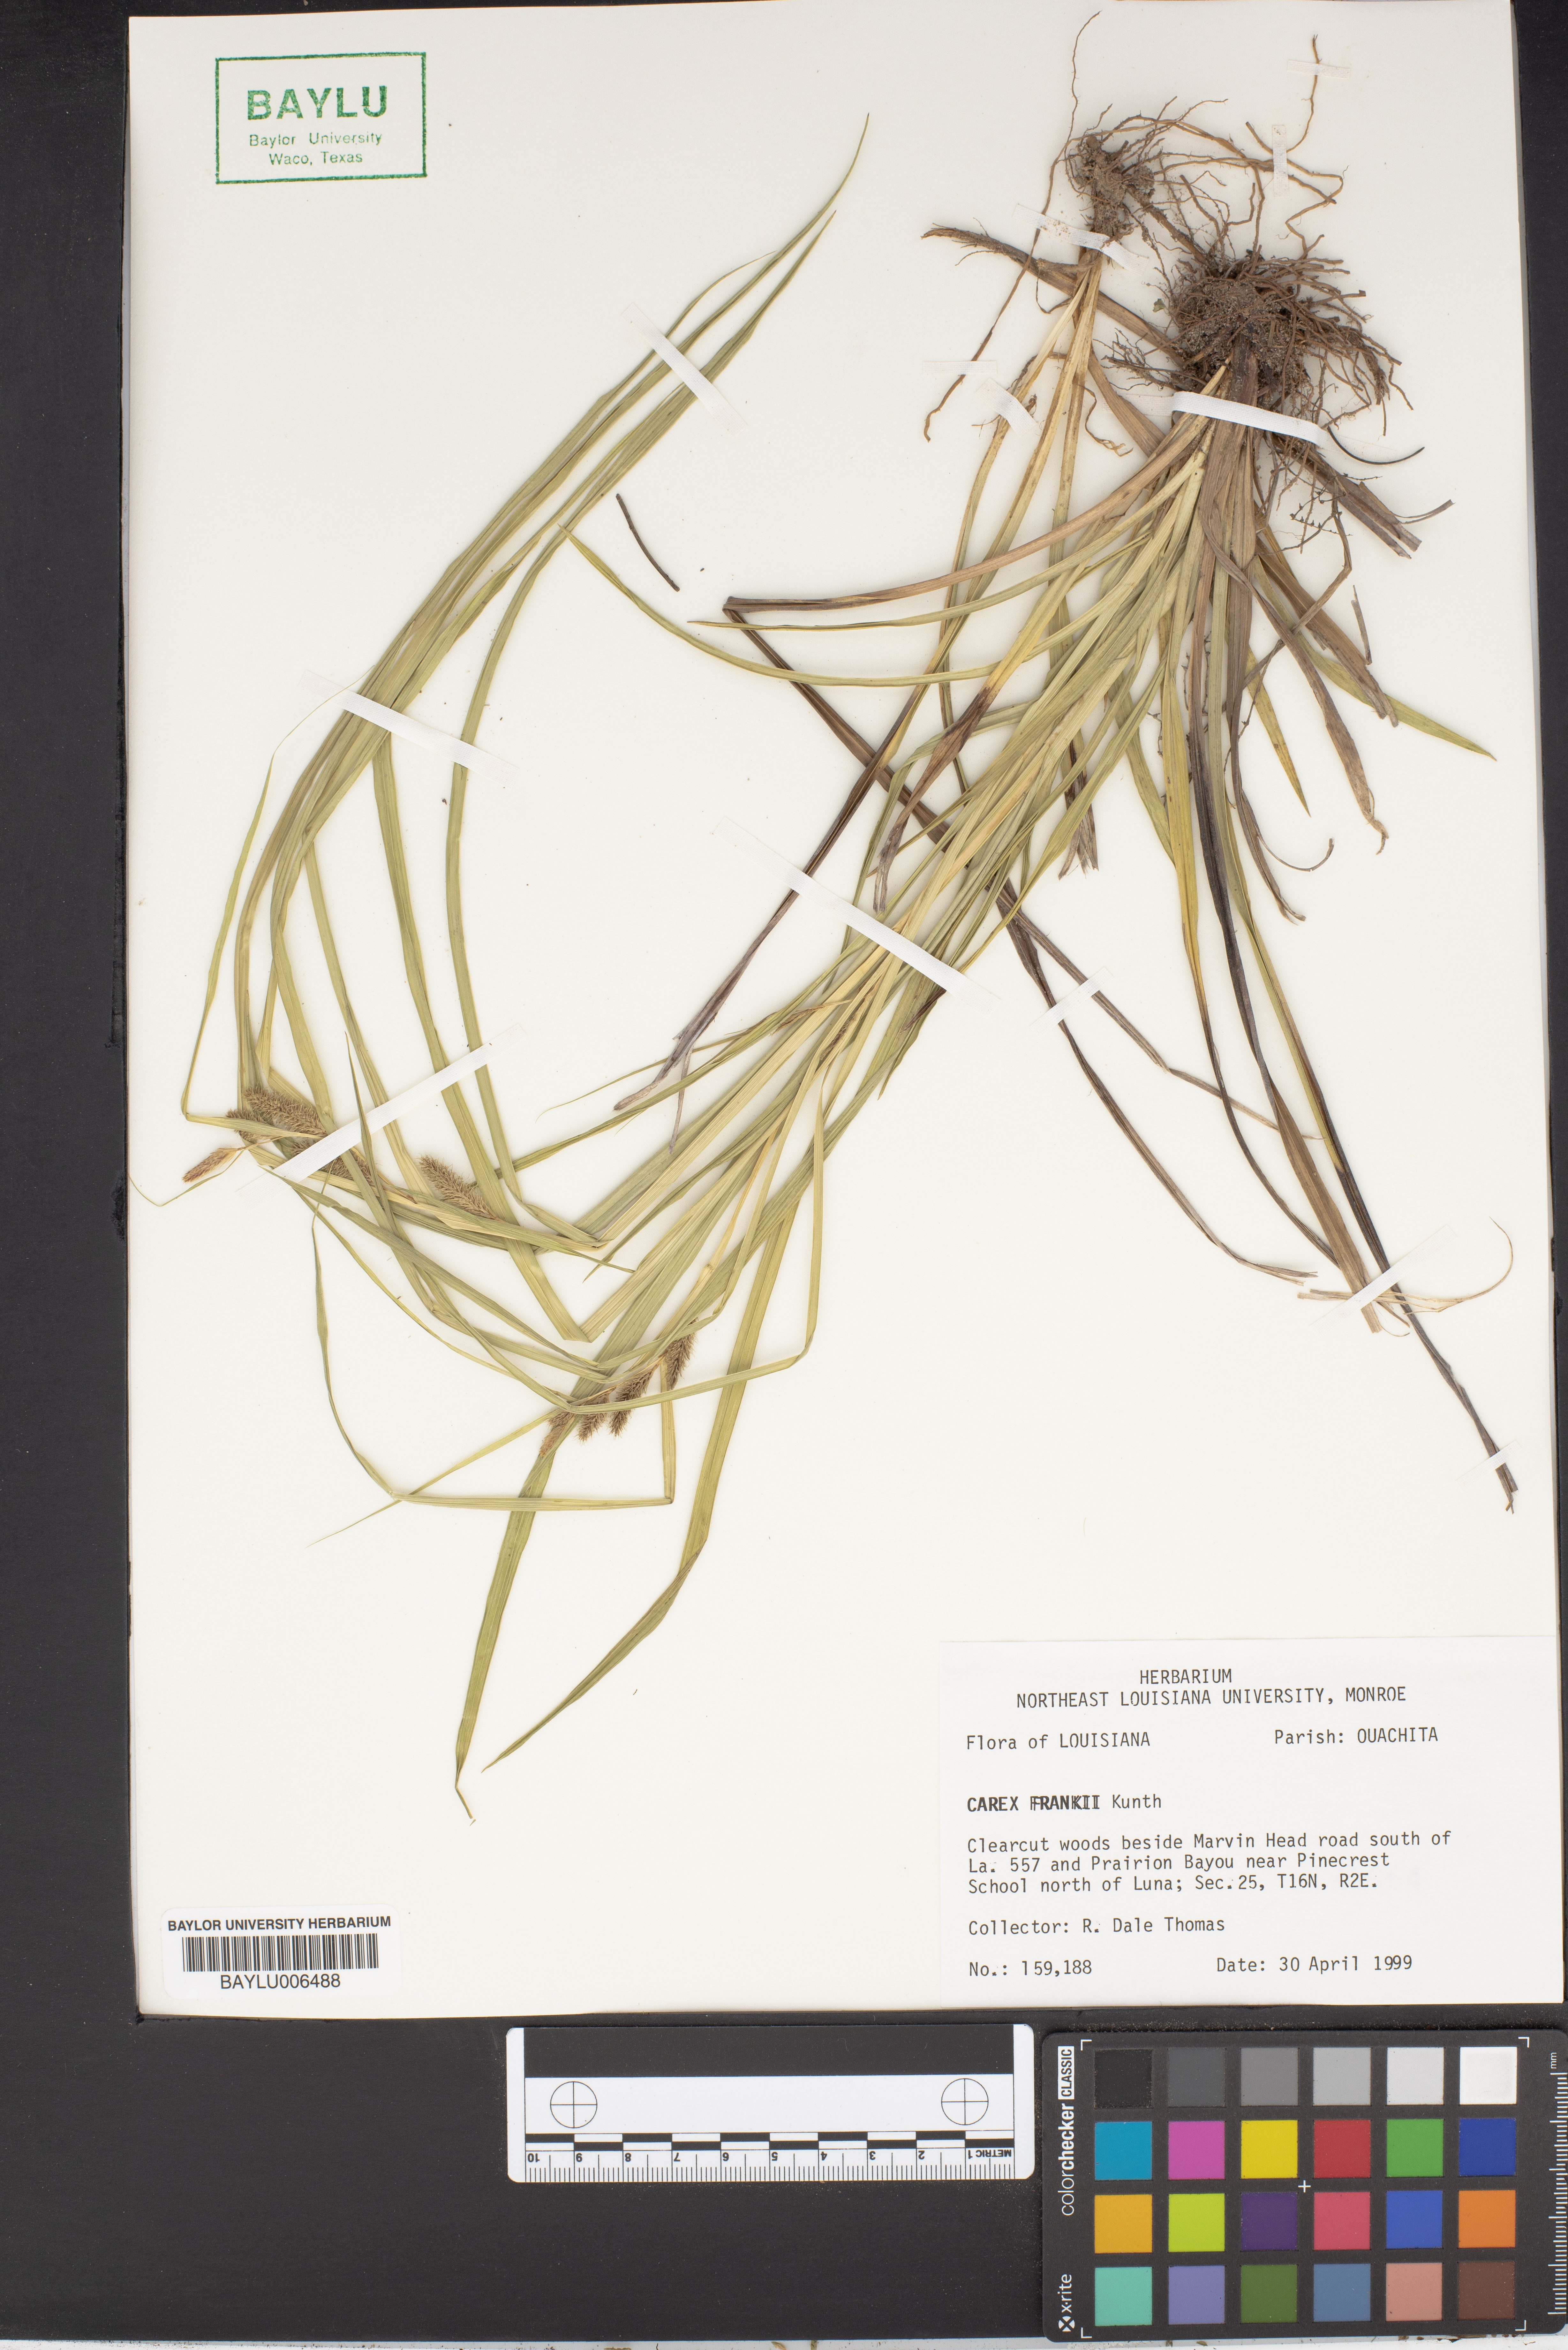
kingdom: Plantae
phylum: Tracheophyta
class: Liliopsida
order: Poales
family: Cyperaceae
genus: Carex
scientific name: Carex frankii
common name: Frank's sedge
